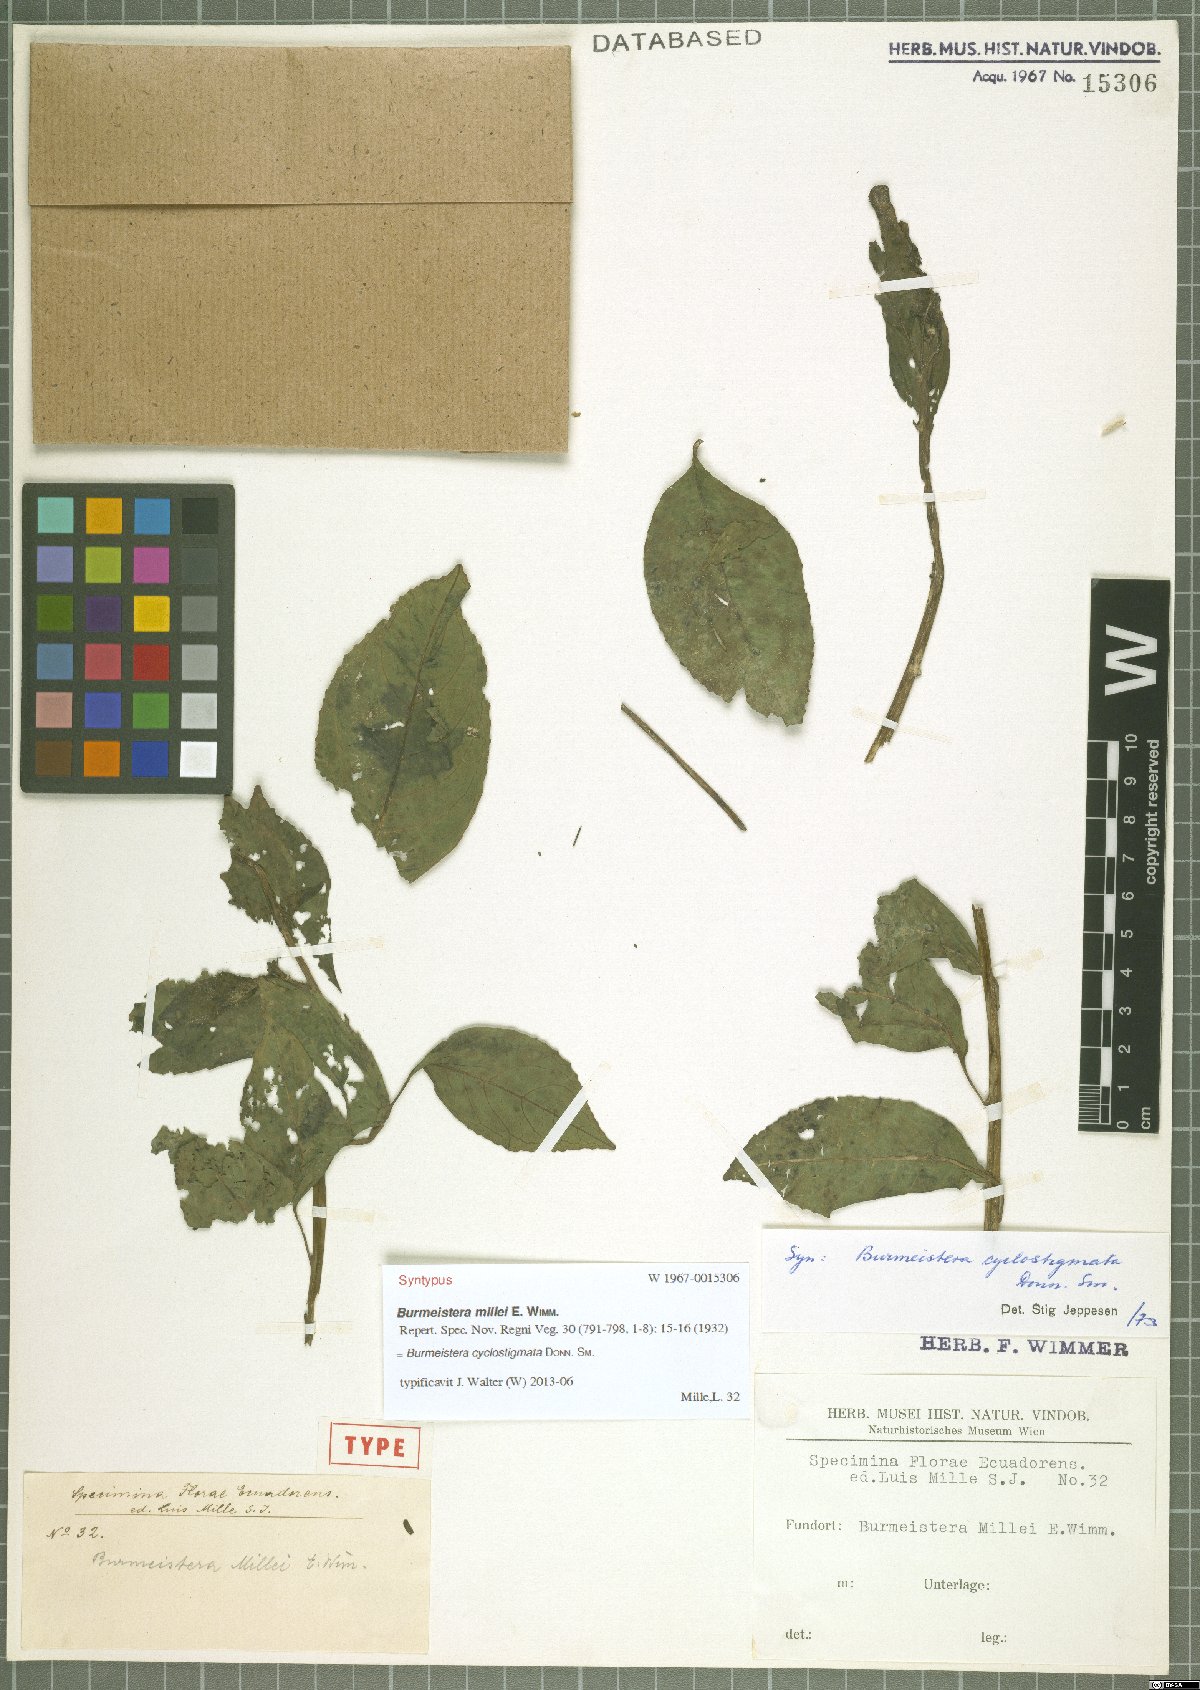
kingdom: Plantae
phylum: Tracheophyta
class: Magnoliopsida
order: Asterales
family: Campanulaceae
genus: Burmeistera
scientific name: Burmeistera cyclostigmata
